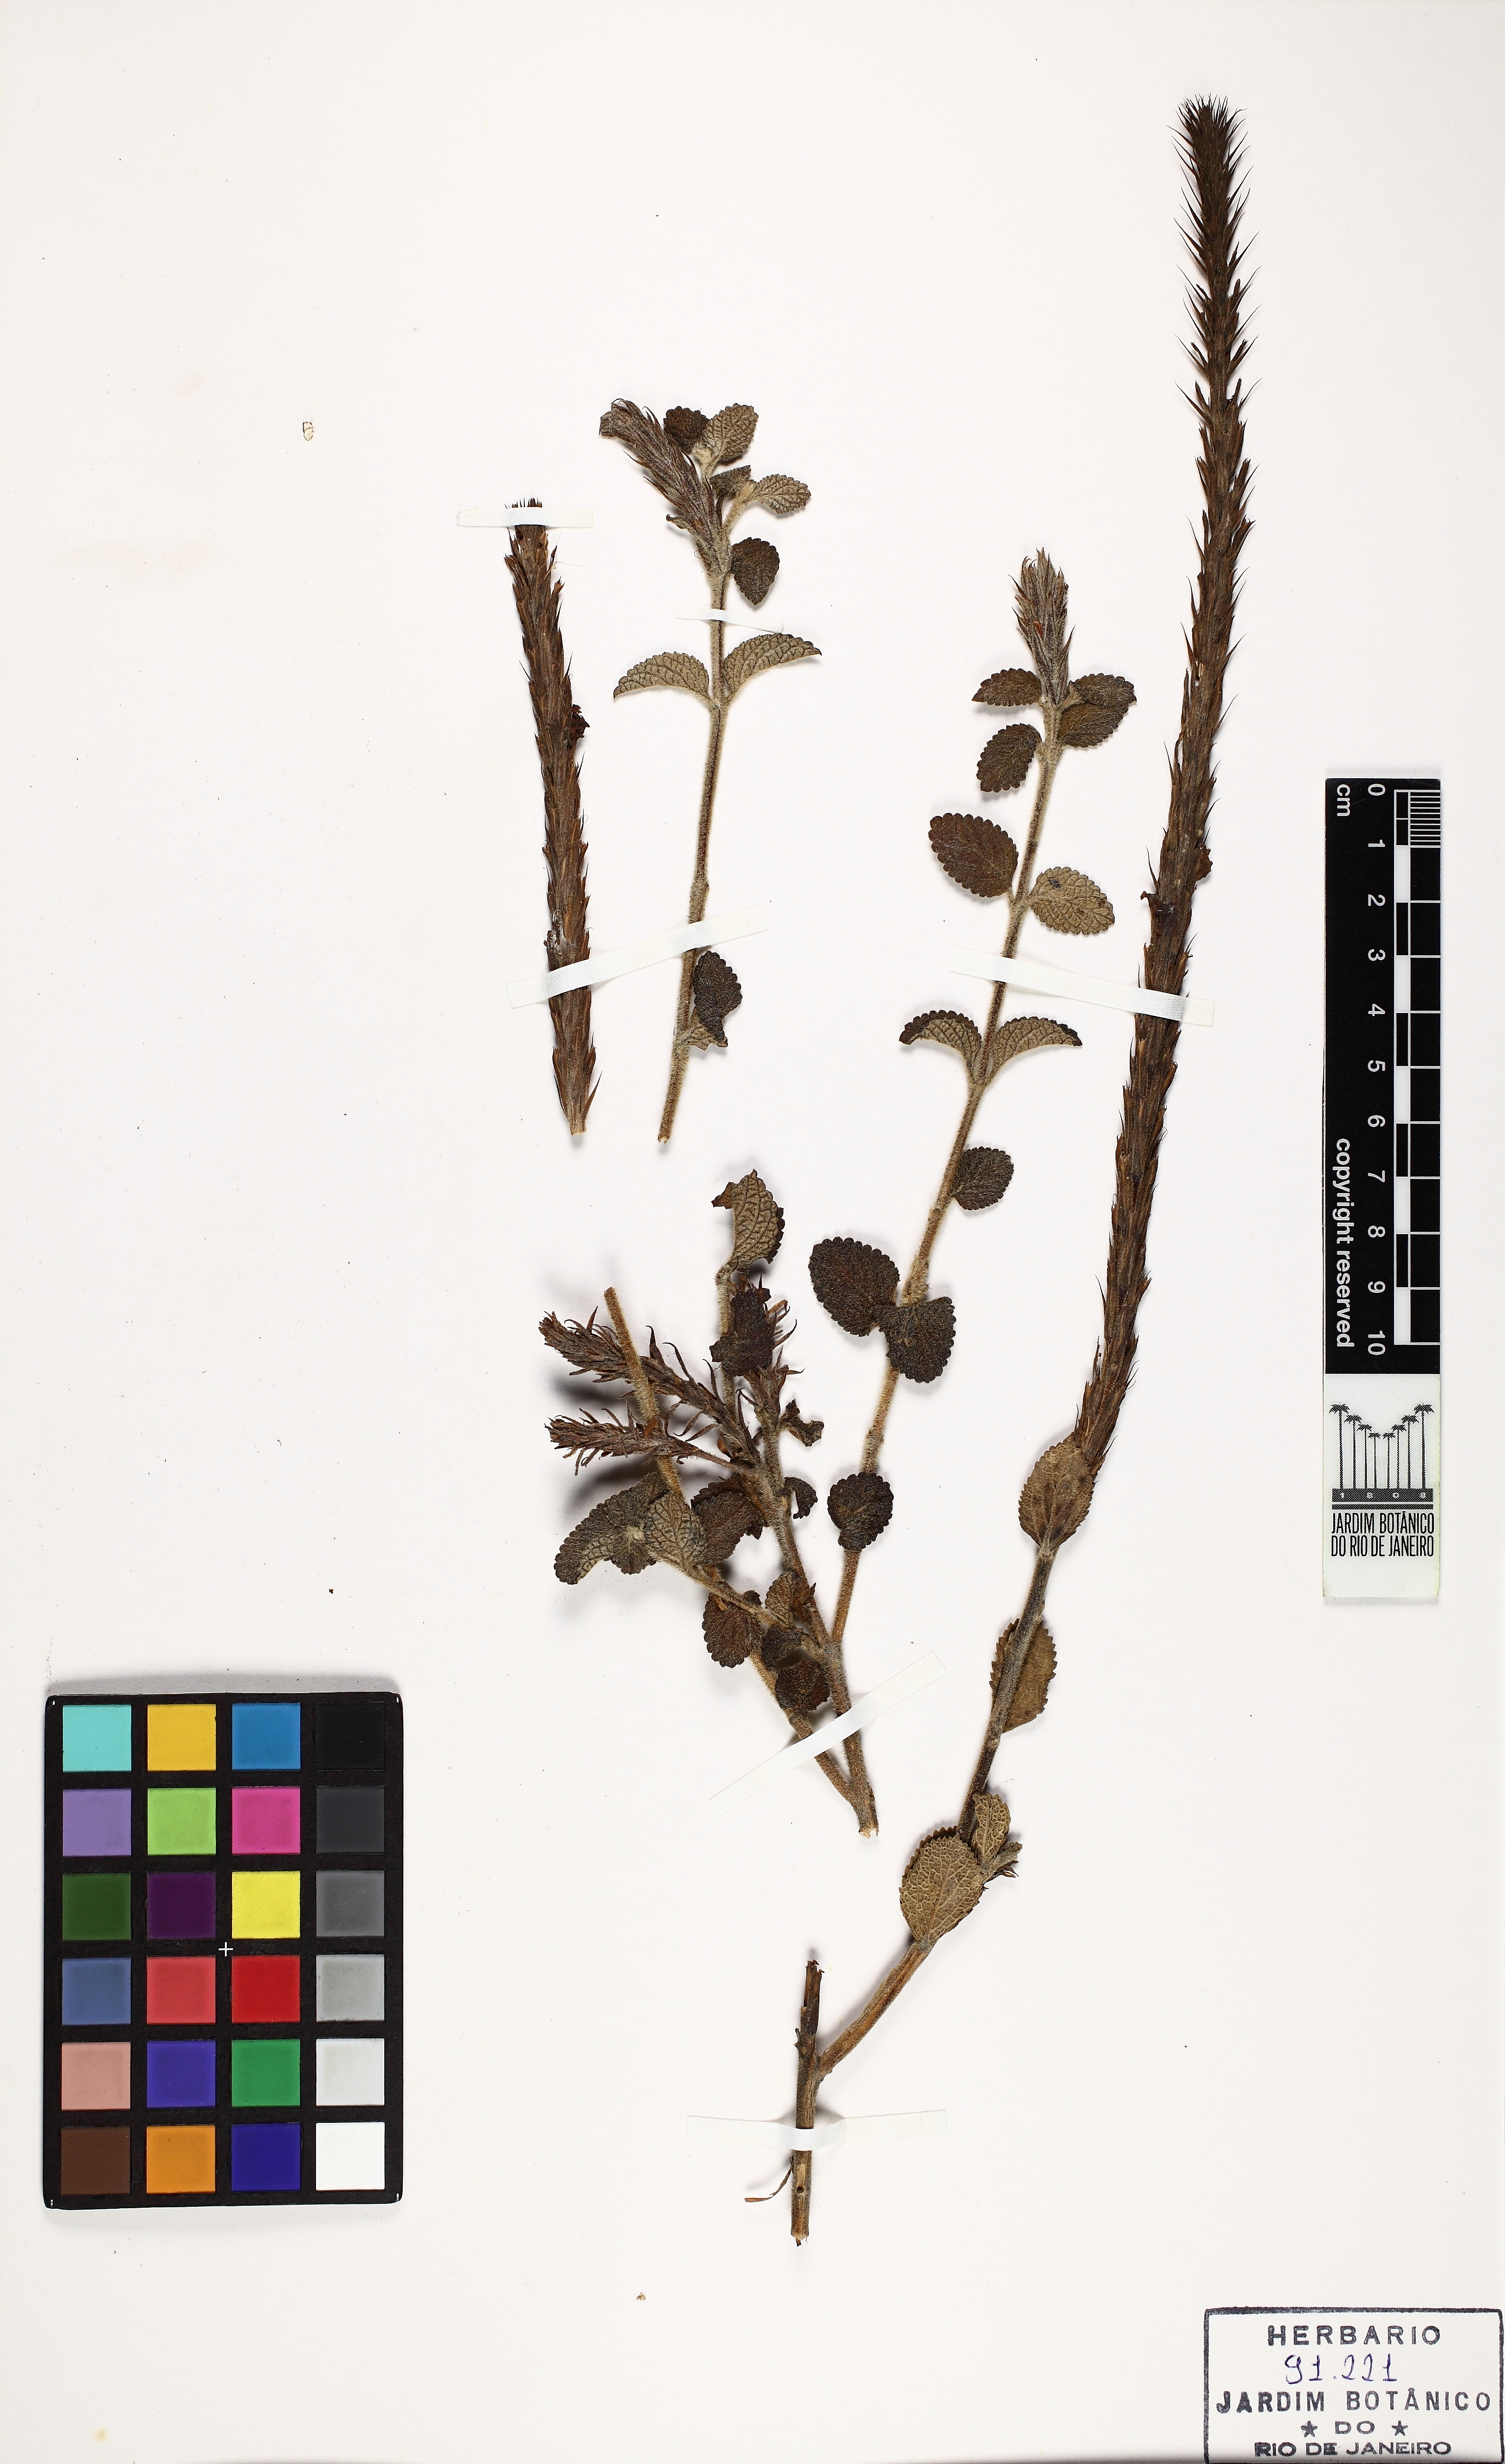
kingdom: Plantae
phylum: Tracheophyta
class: Magnoliopsida
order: Lamiales
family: Verbenaceae
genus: Stachytarpheta
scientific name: Stachytarpheta reticulata
